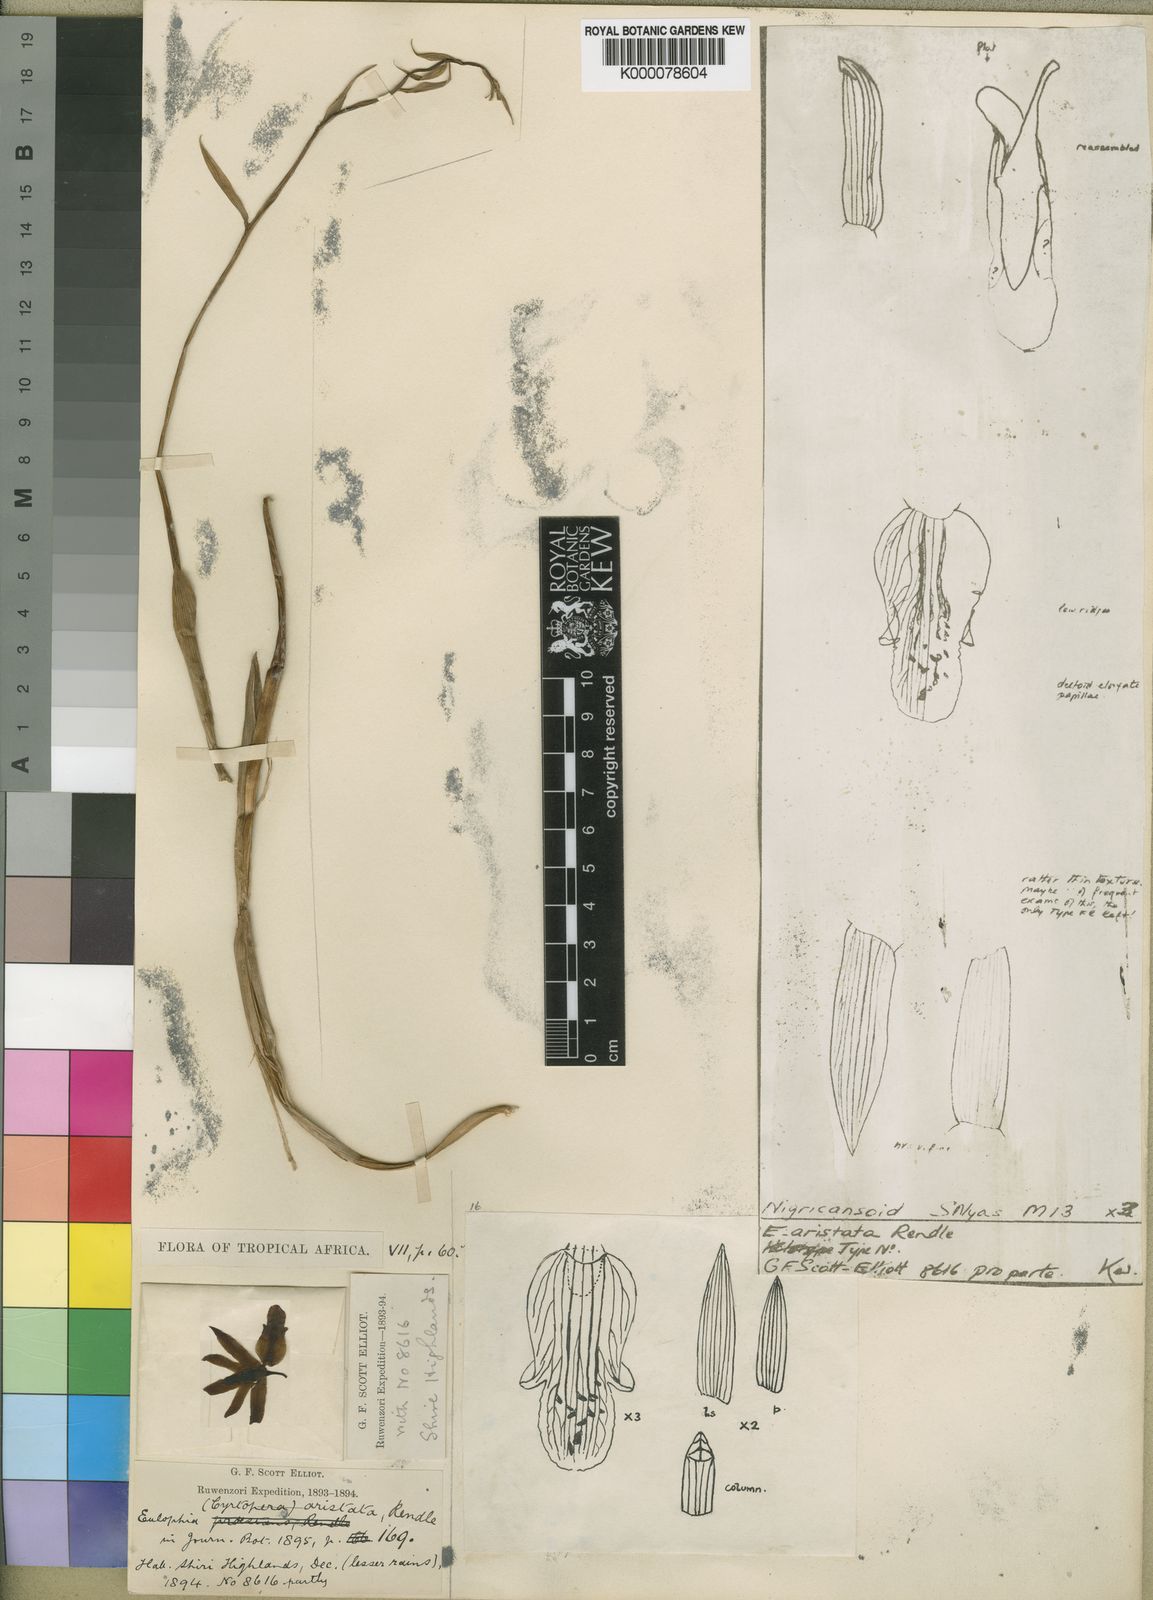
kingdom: Plantae
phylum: Tracheophyta
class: Liliopsida
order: Asparagales
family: Orchidaceae
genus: Eulophia
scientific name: Eulophia adenoglossa
